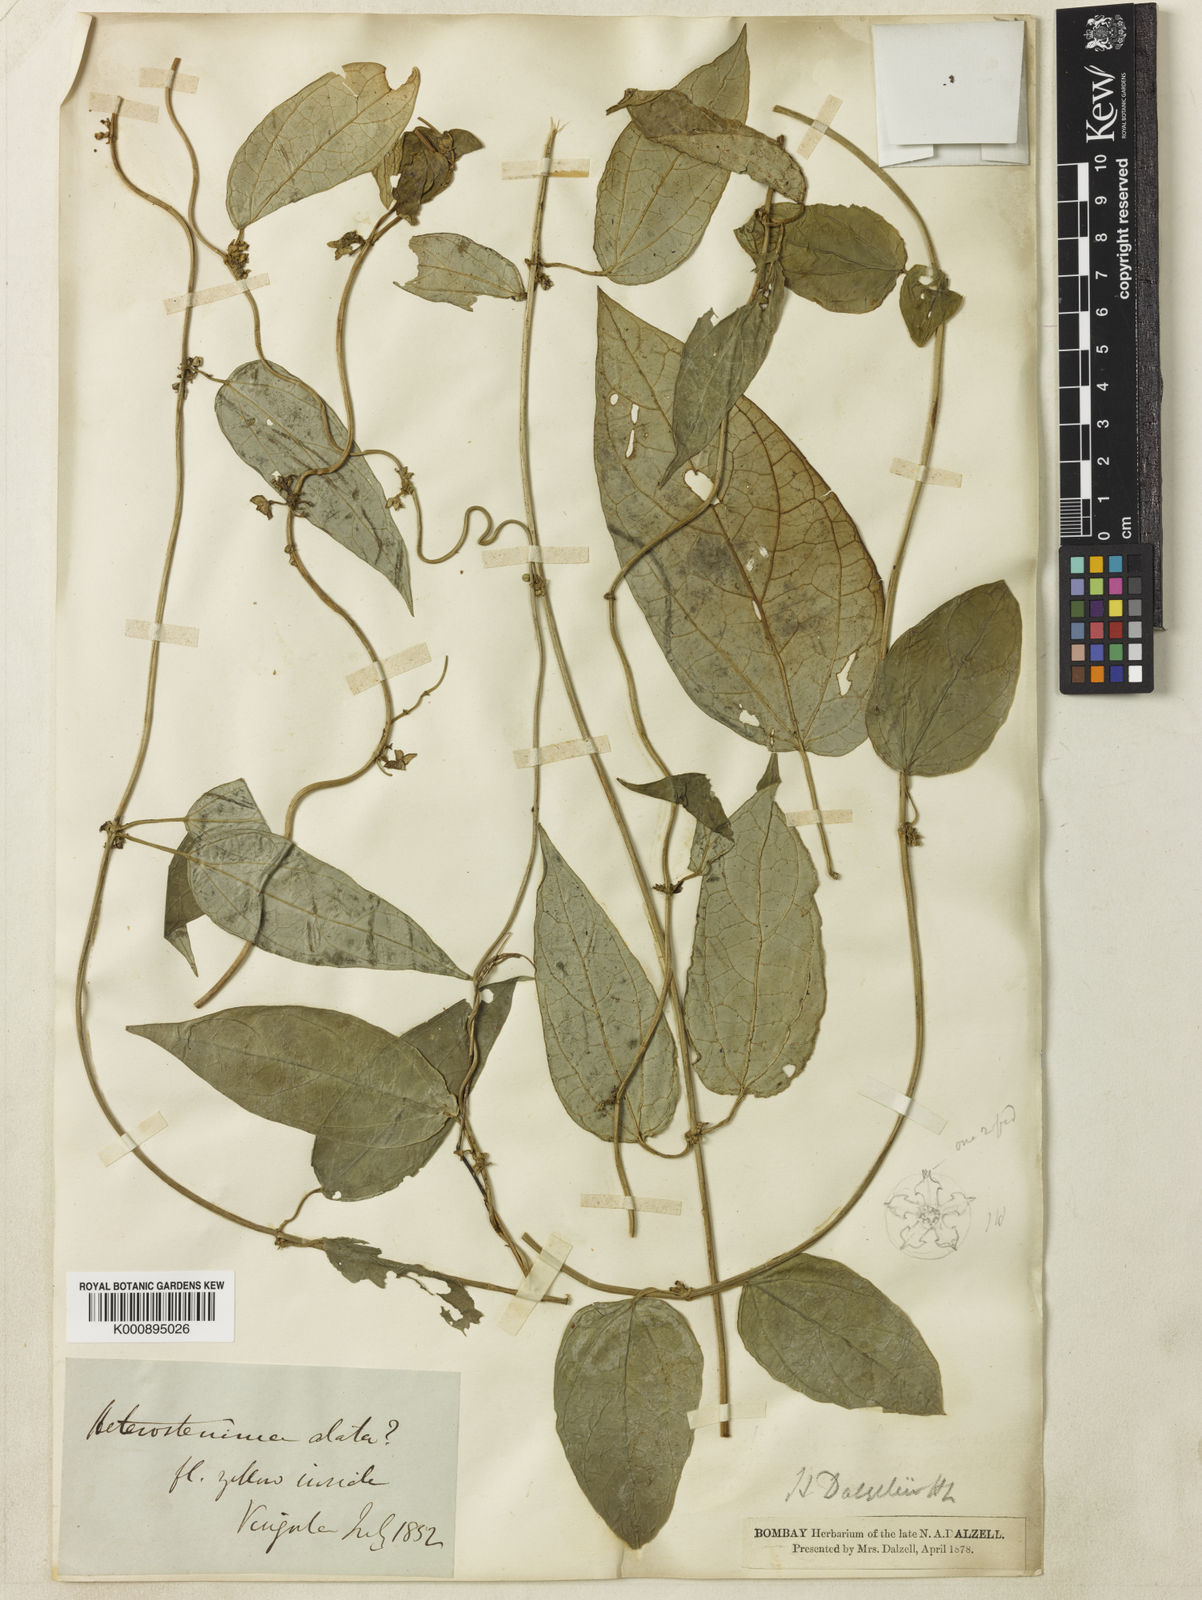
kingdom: Plantae
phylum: Tracheophyta
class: Magnoliopsida
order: Gentianales
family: Apocynaceae
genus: Heterostemma
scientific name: Heterostemma dalzellii
